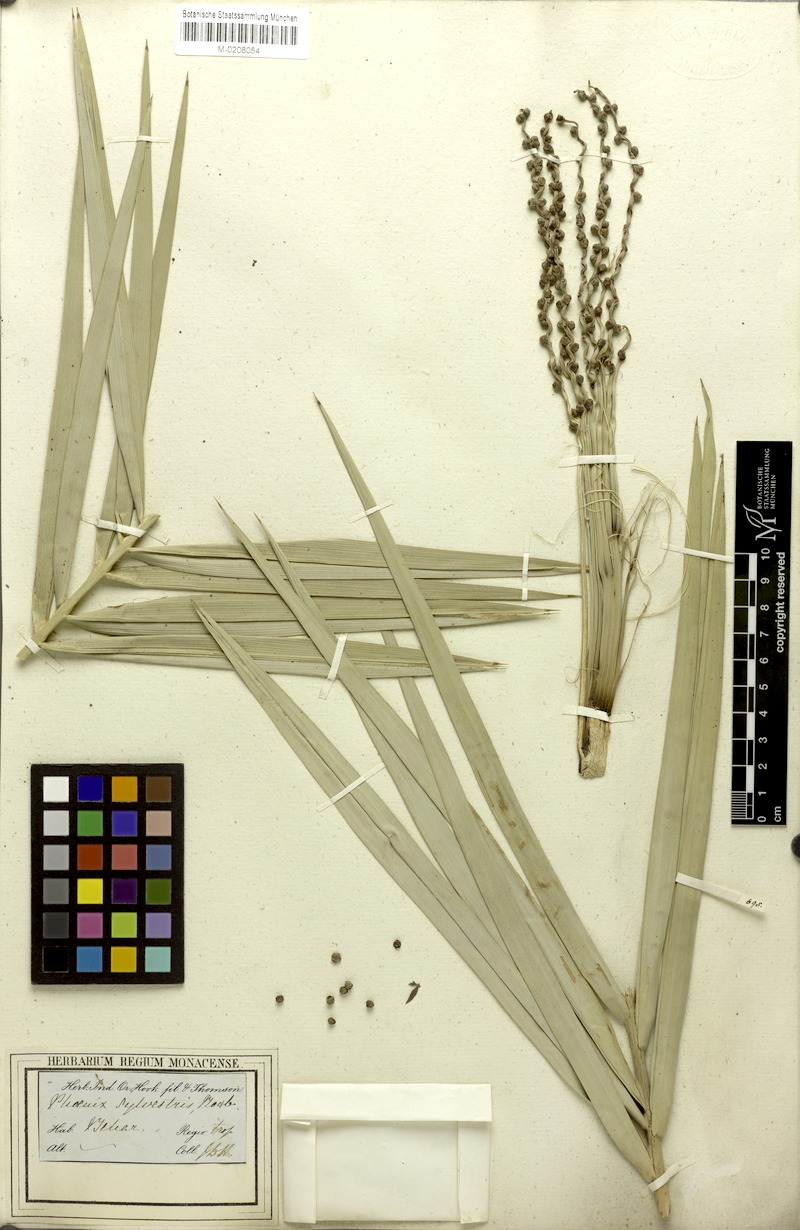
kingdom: Plantae
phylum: Tracheophyta
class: Liliopsida
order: Arecales
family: Arecaceae
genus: Phoenix
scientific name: Phoenix sylvestris
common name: Wild date palm
